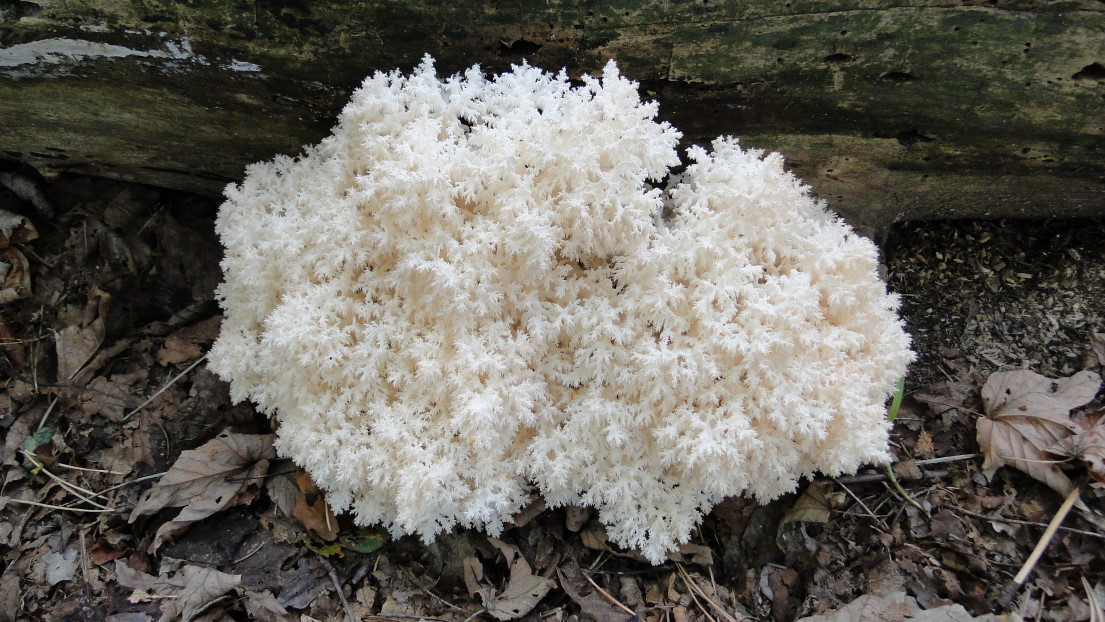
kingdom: Fungi
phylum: Basidiomycota
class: Agaricomycetes
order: Russulales
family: Hericiaceae
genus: Hericium
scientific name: Hericium coralloides
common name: koralpigsvamp
